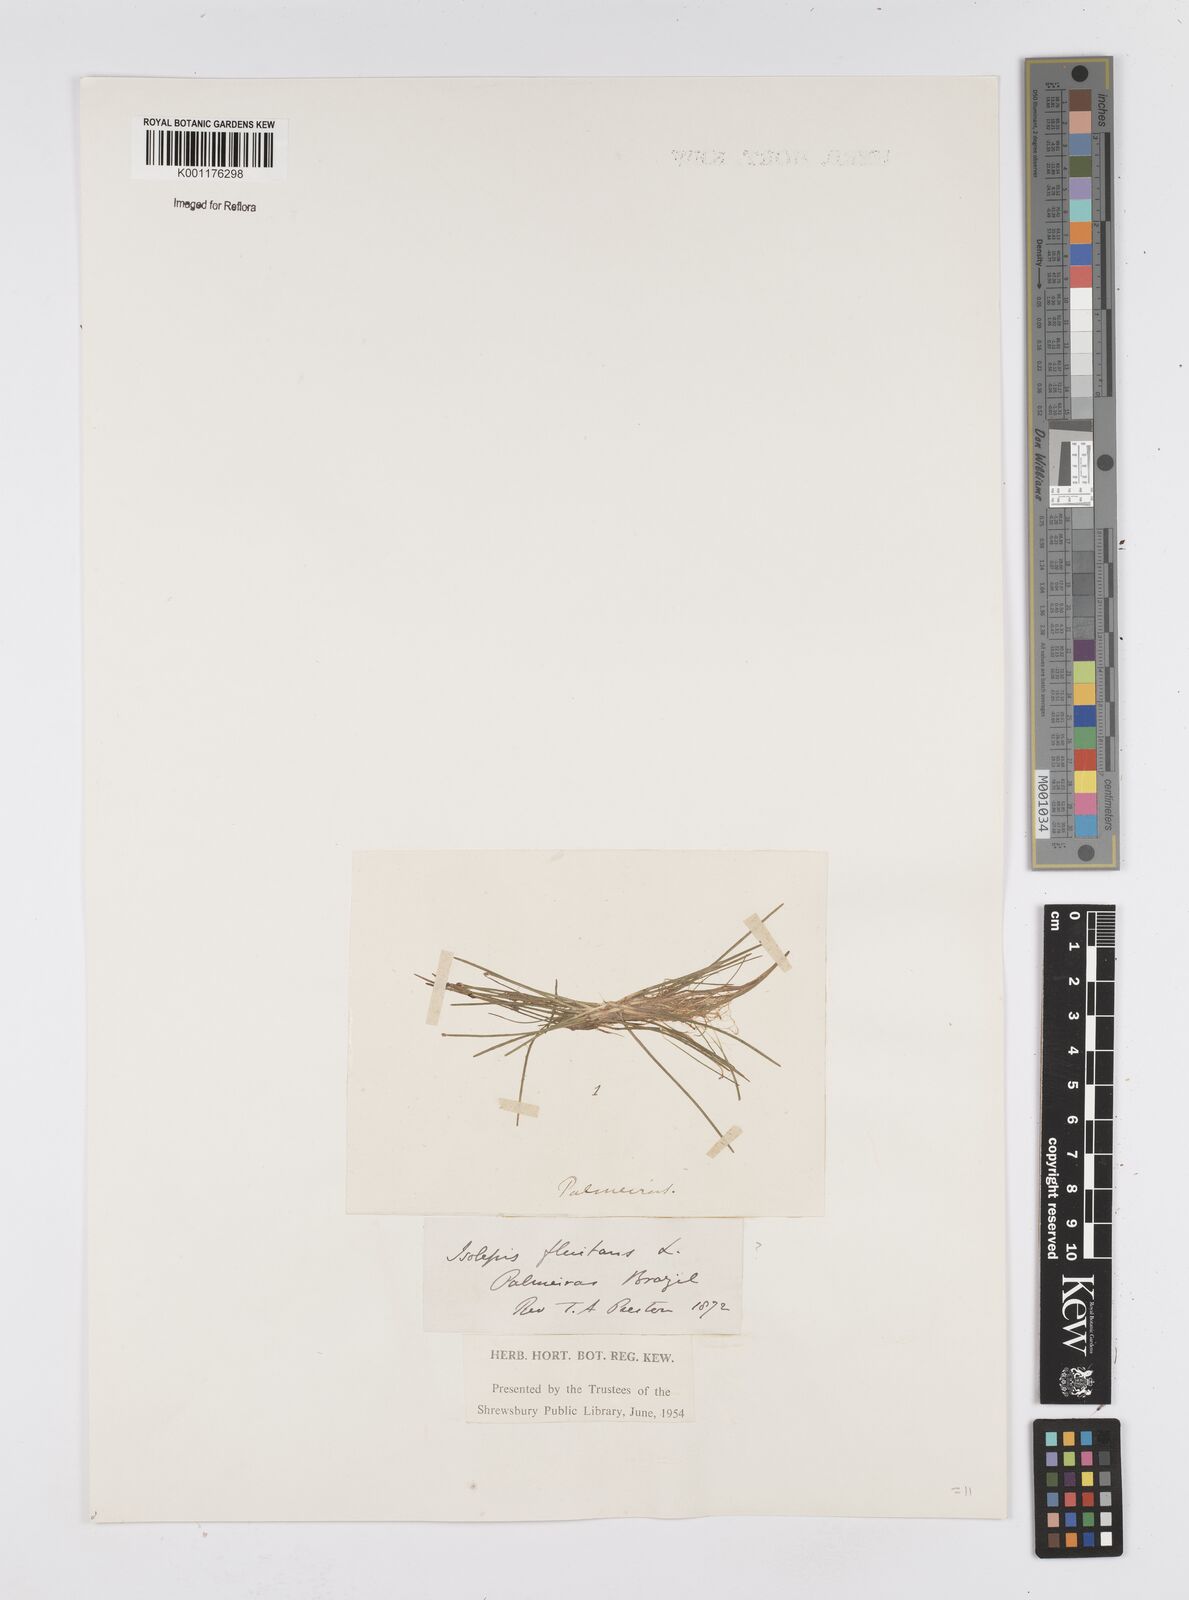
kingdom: Plantae
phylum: Tracheophyta
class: Liliopsida
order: Poales
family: Cyperaceae
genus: Eleocharis
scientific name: Eleocharis
